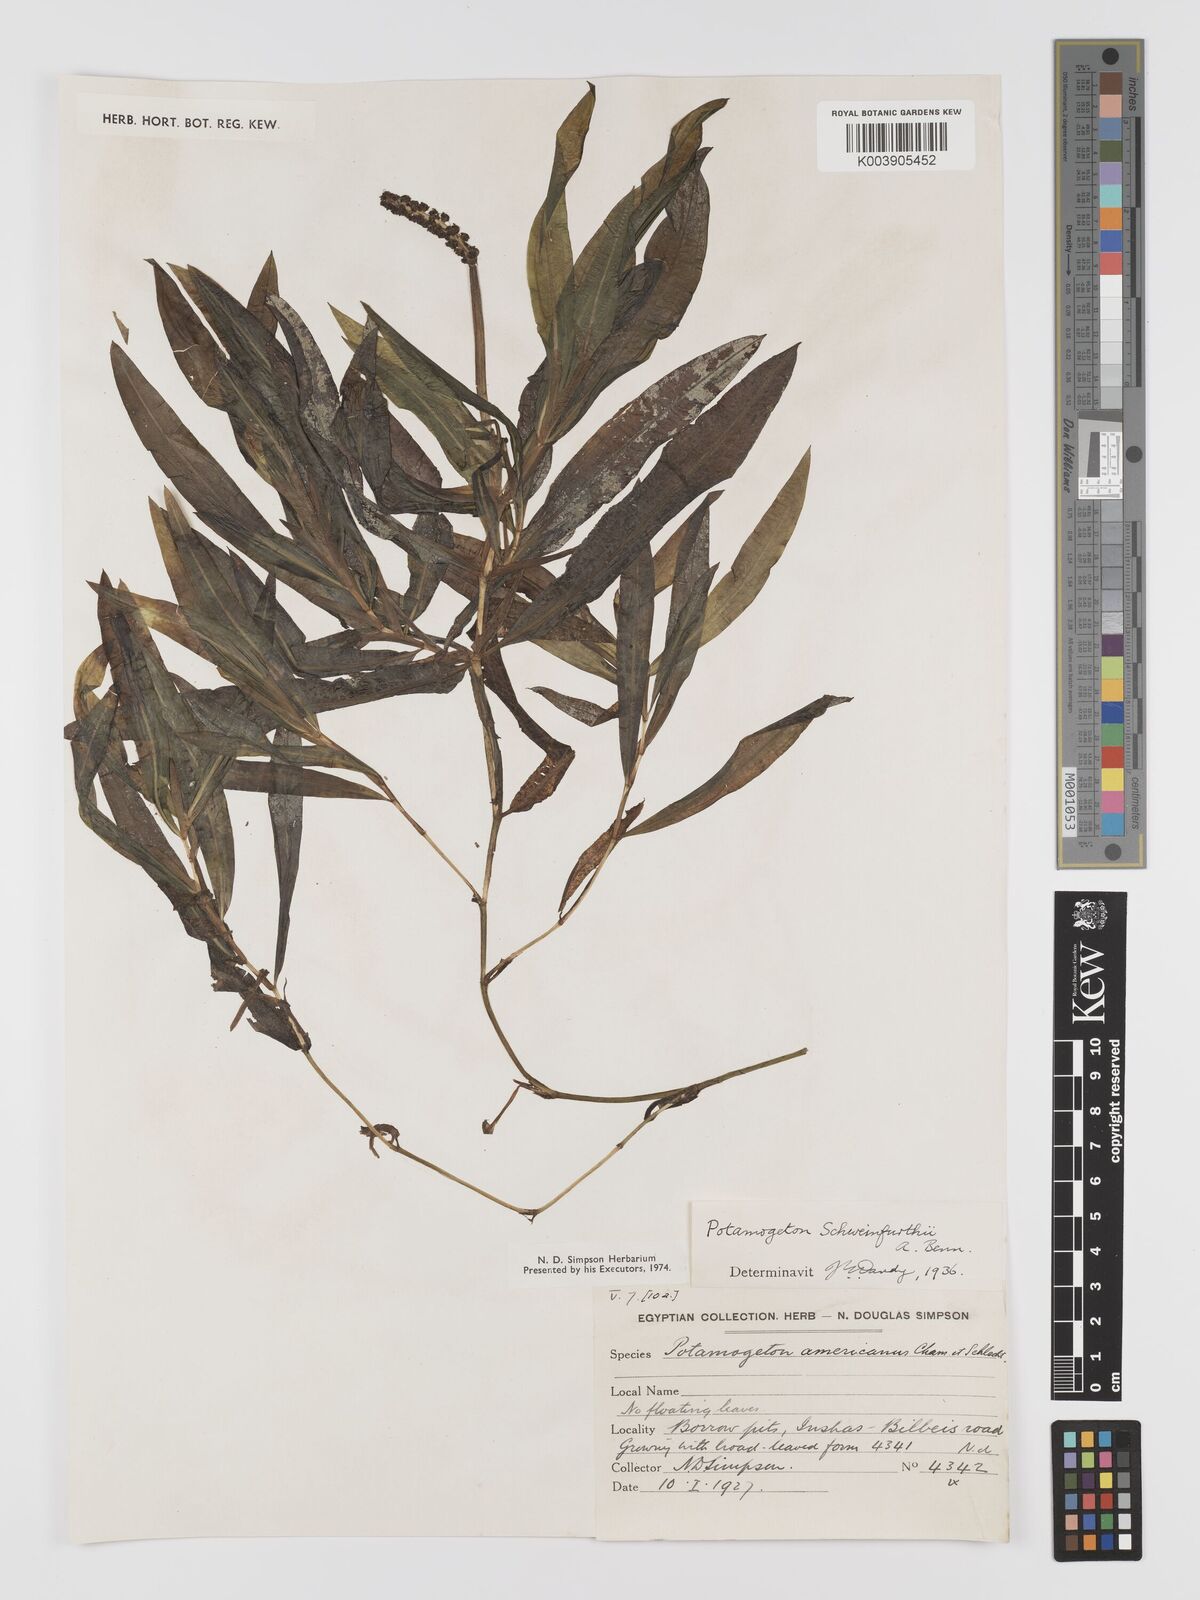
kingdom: Plantae
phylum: Tracheophyta
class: Liliopsida
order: Alismatales
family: Potamogetonaceae
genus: Potamogeton
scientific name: Potamogeton schweinfurthii
